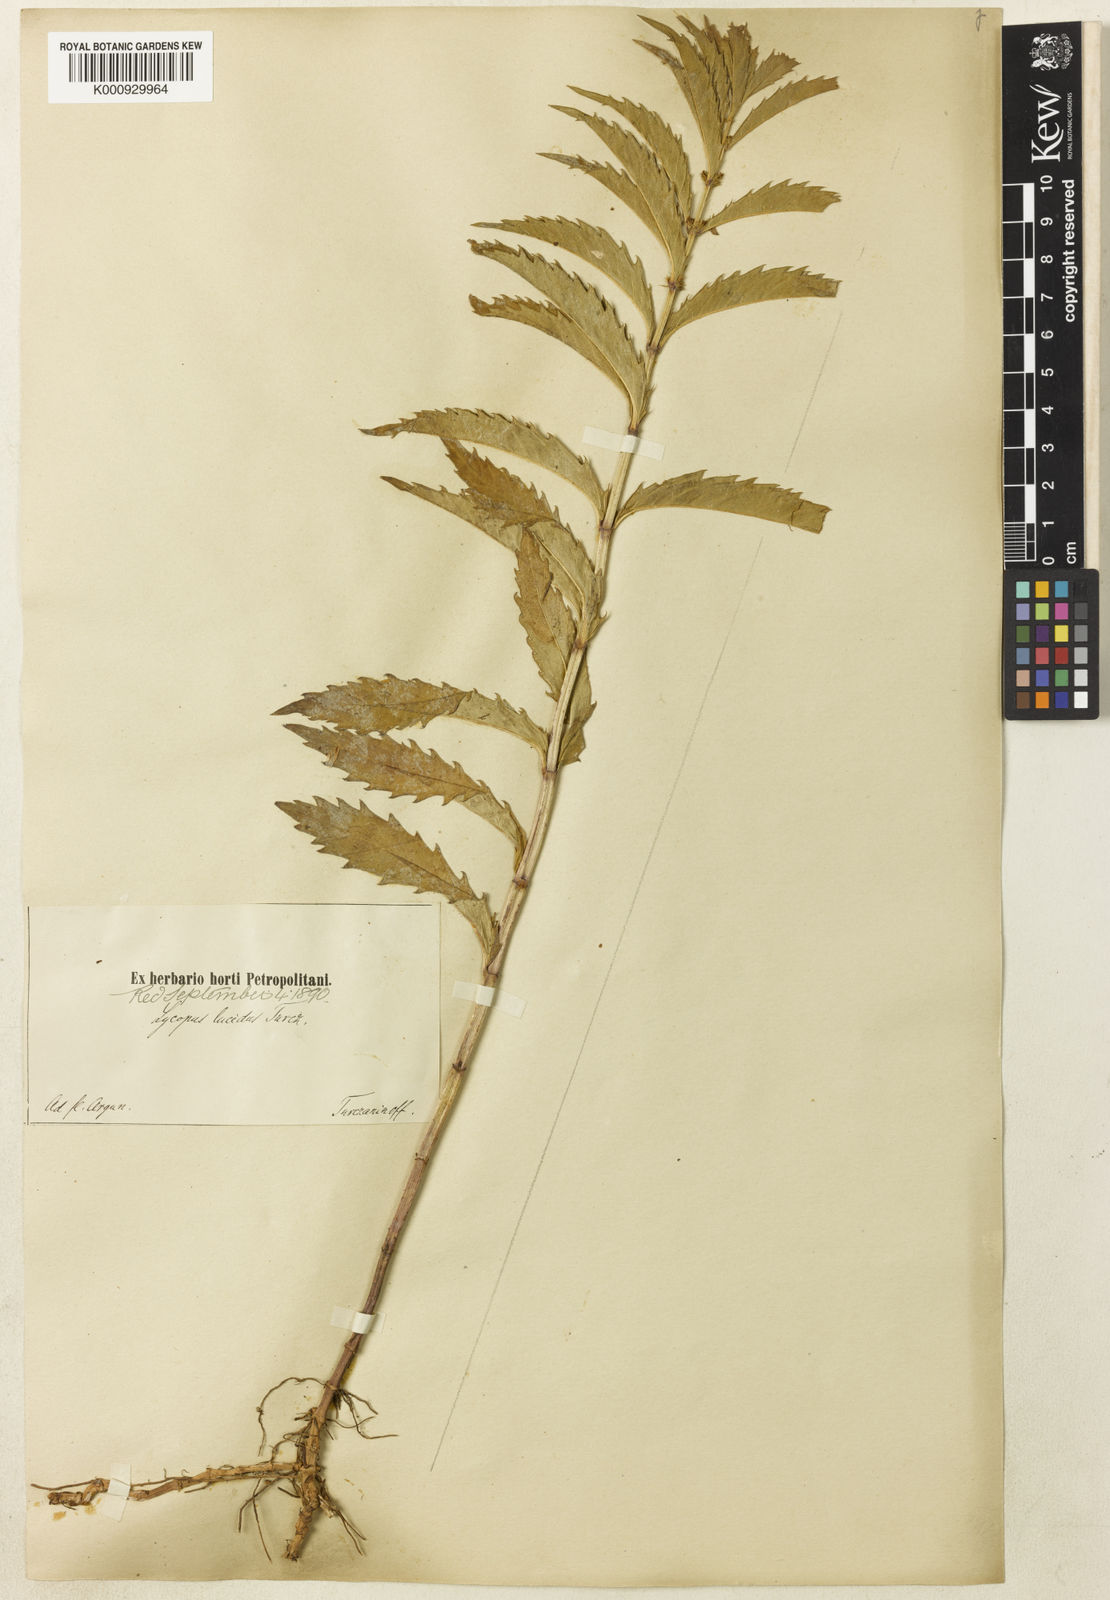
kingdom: Plantae
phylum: Tracheophyta
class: Magnoliopsida
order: Lamiales
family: Lamiaceae
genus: Lycopus
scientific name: Lycopus lucidus
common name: Shiny bugleweed
